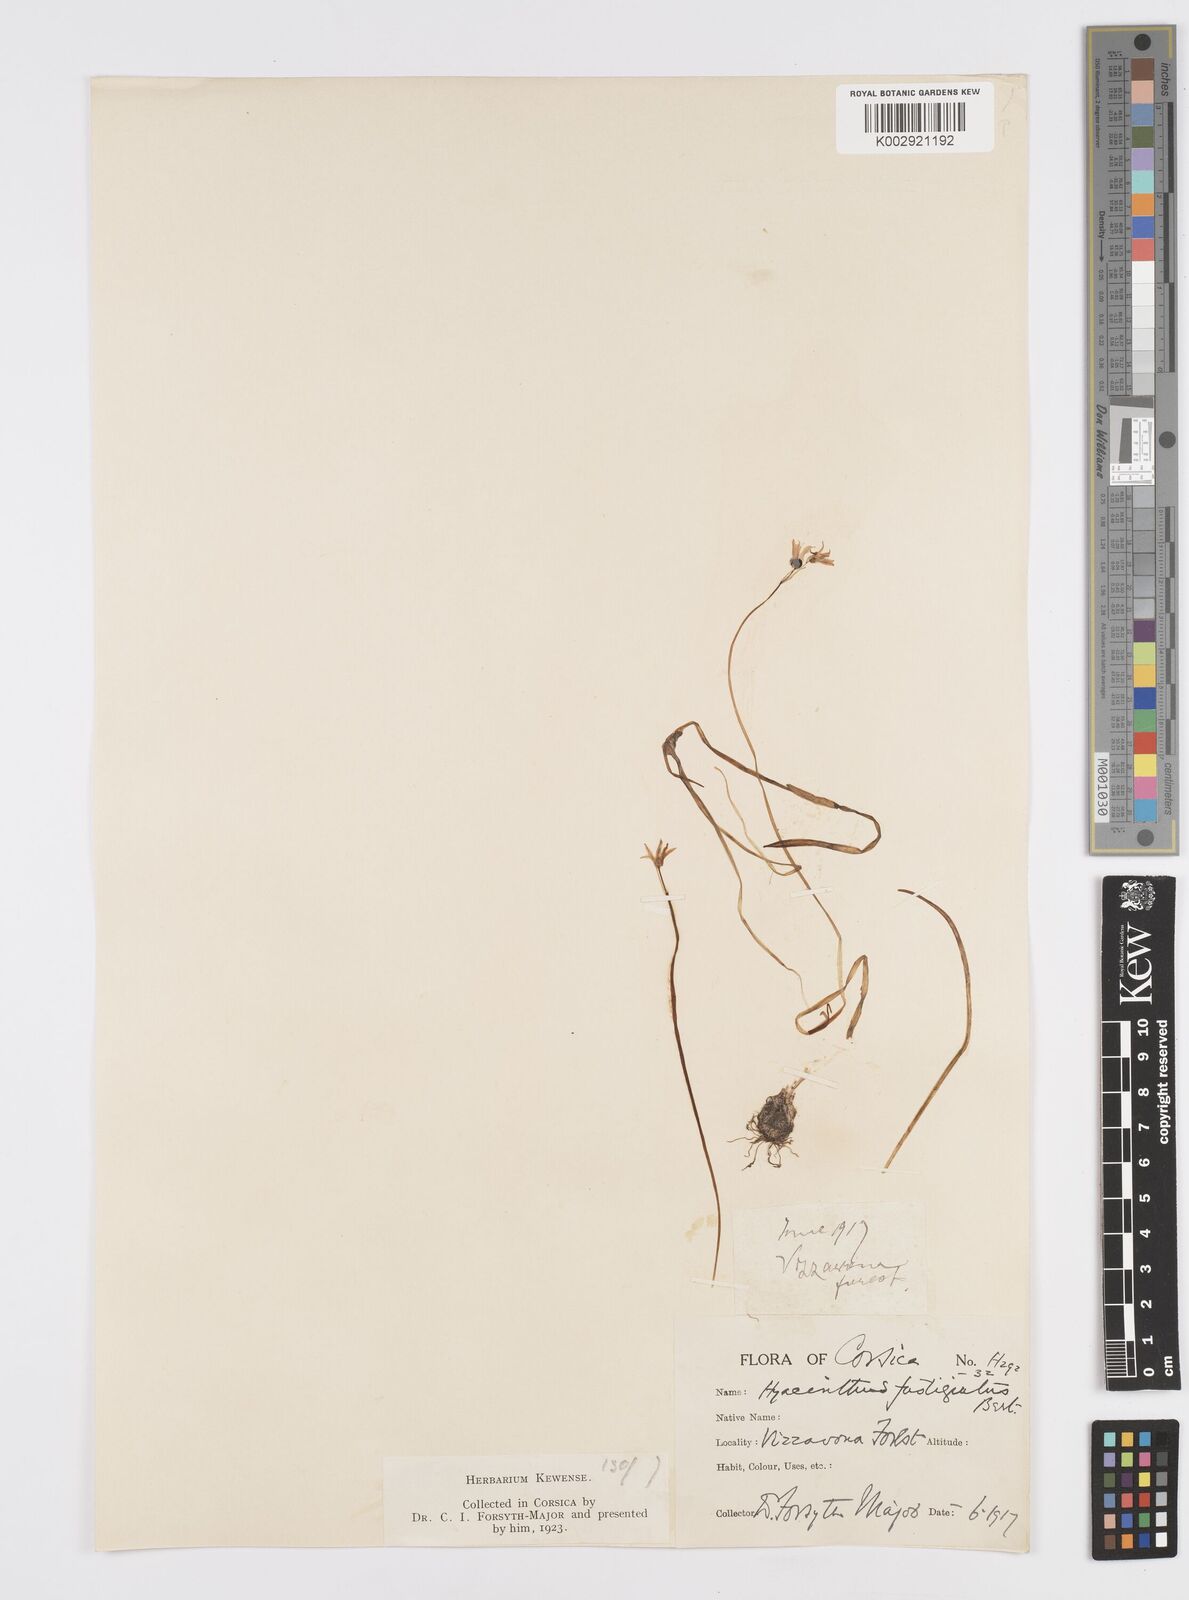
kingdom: Plantae
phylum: Tracheophyta
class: Liliopsida
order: Asparagales
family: Asparagaceae
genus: Brimeura
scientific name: Brimeura fastigiata
